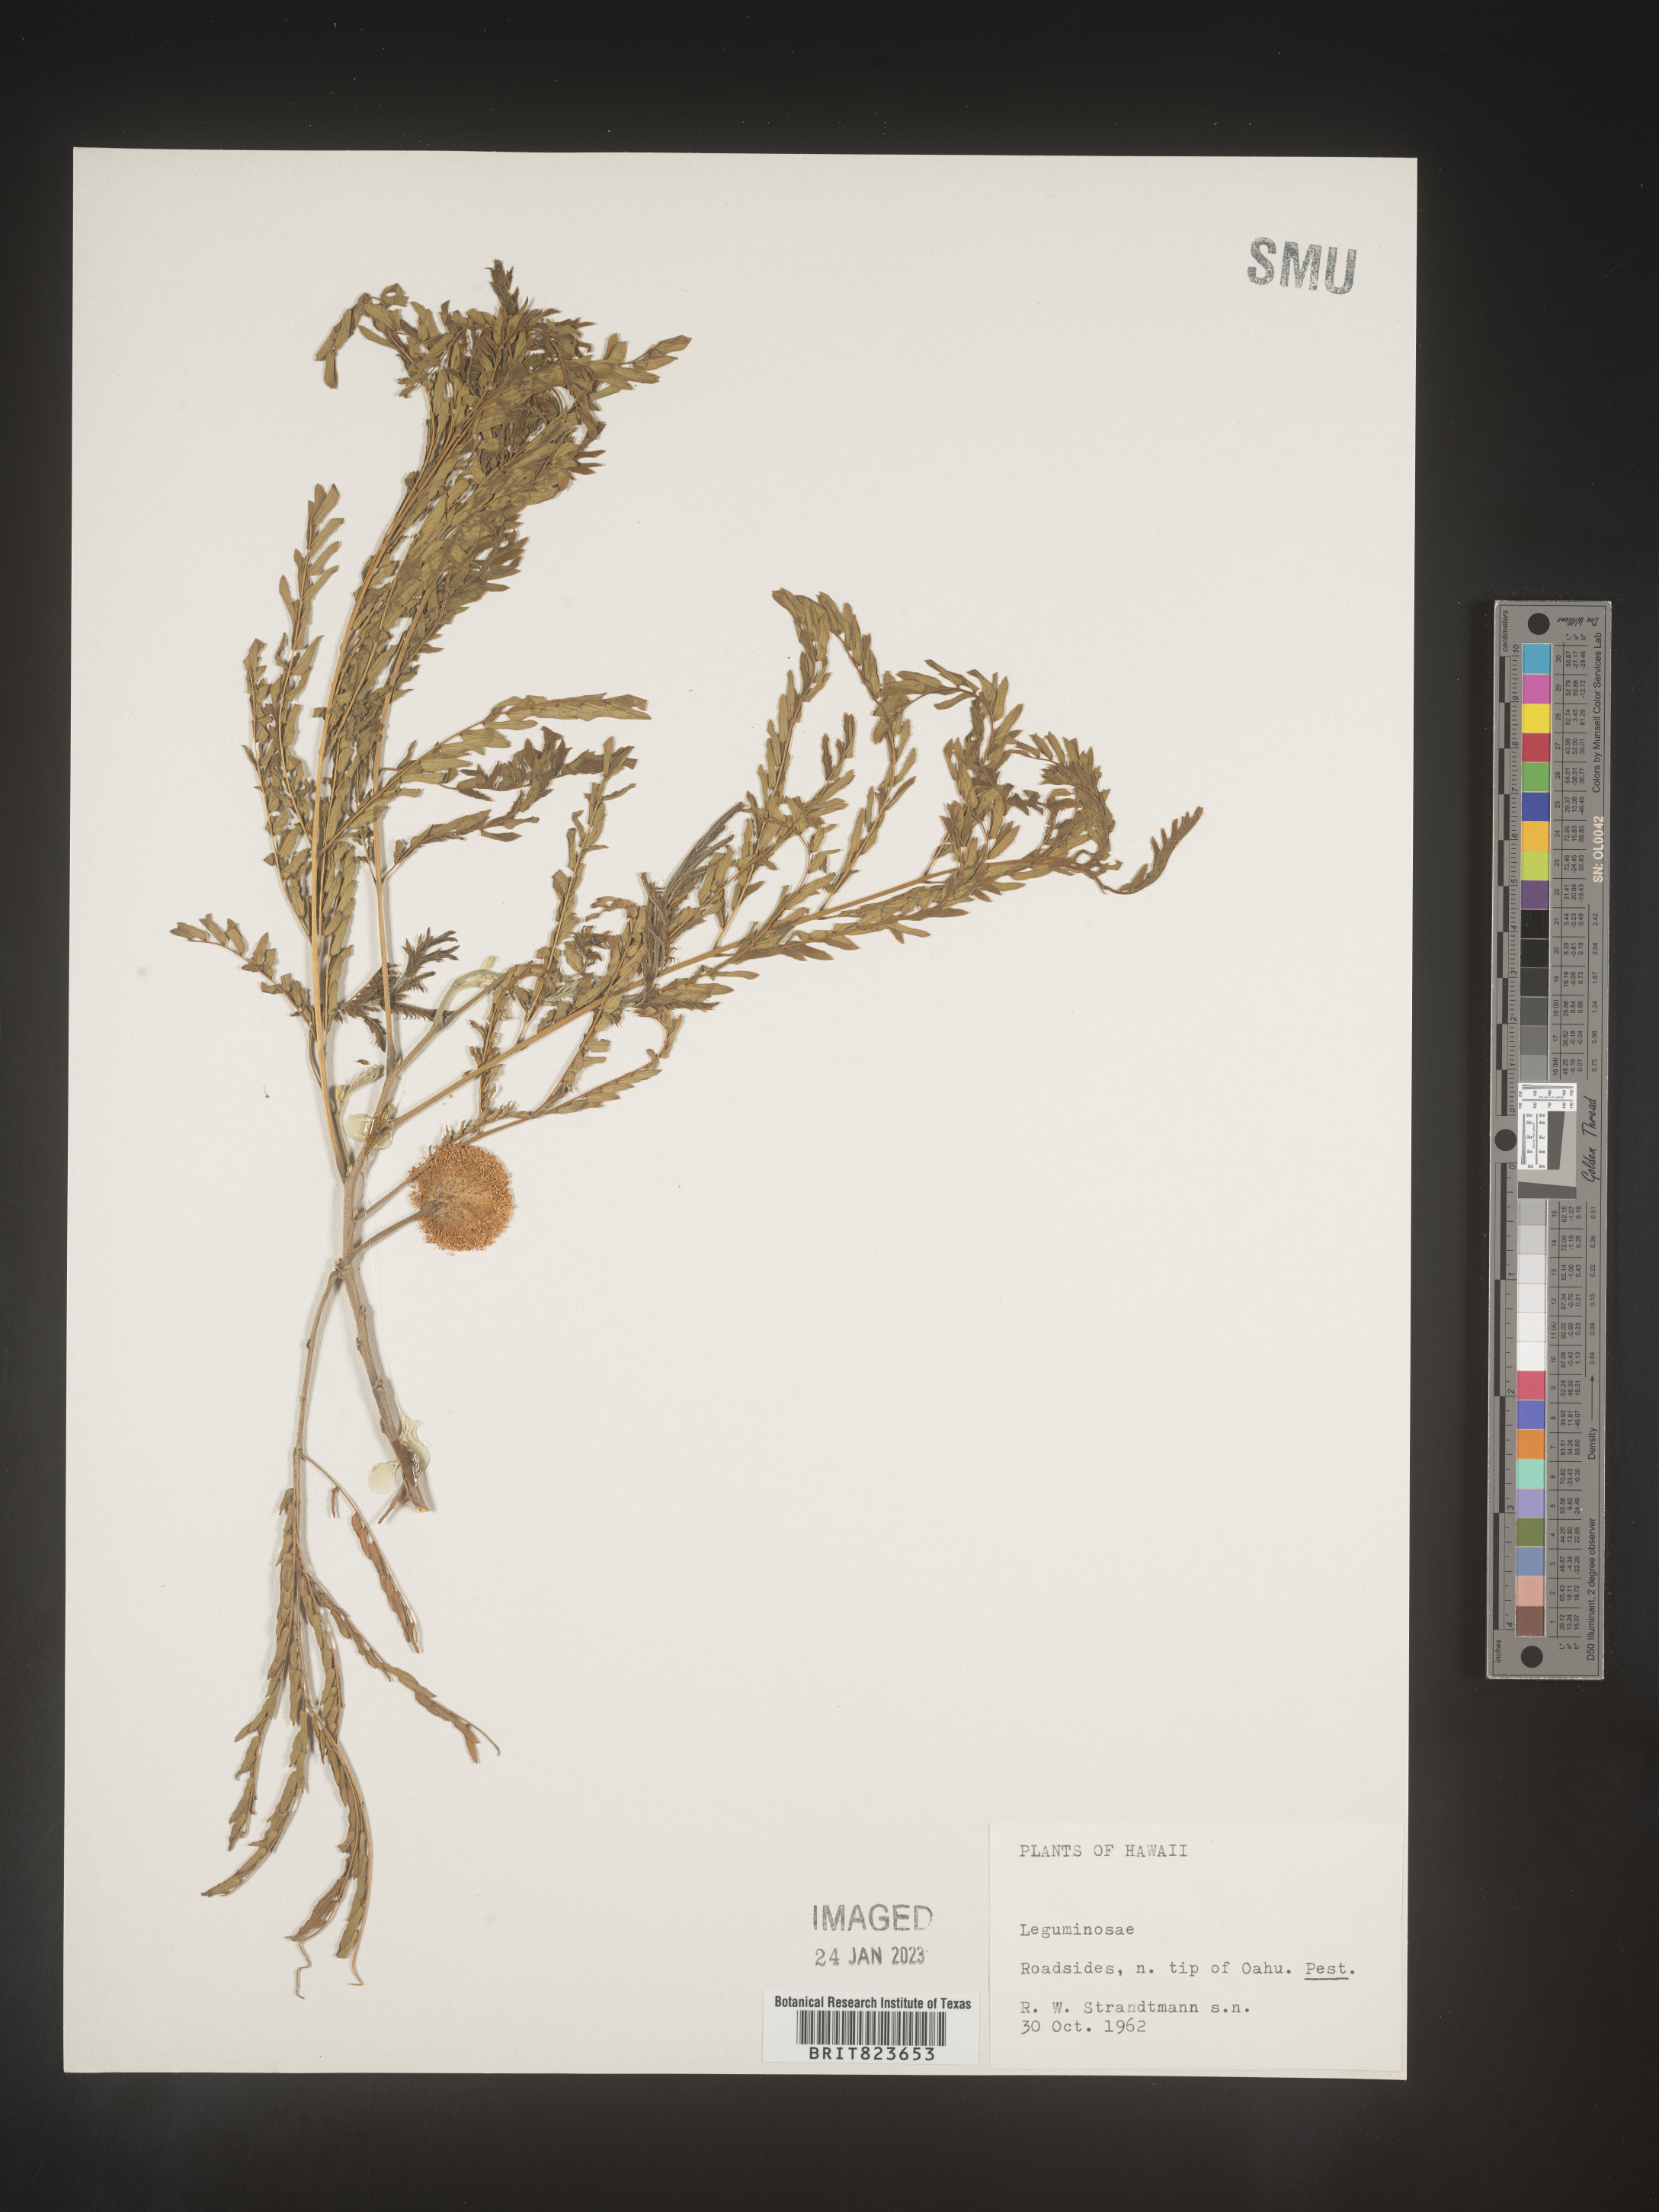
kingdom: Plantae
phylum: Tracheophyta
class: Magnoliopsida
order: Fabales
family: Fabaceae
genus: Leucaena
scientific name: Leucaena
